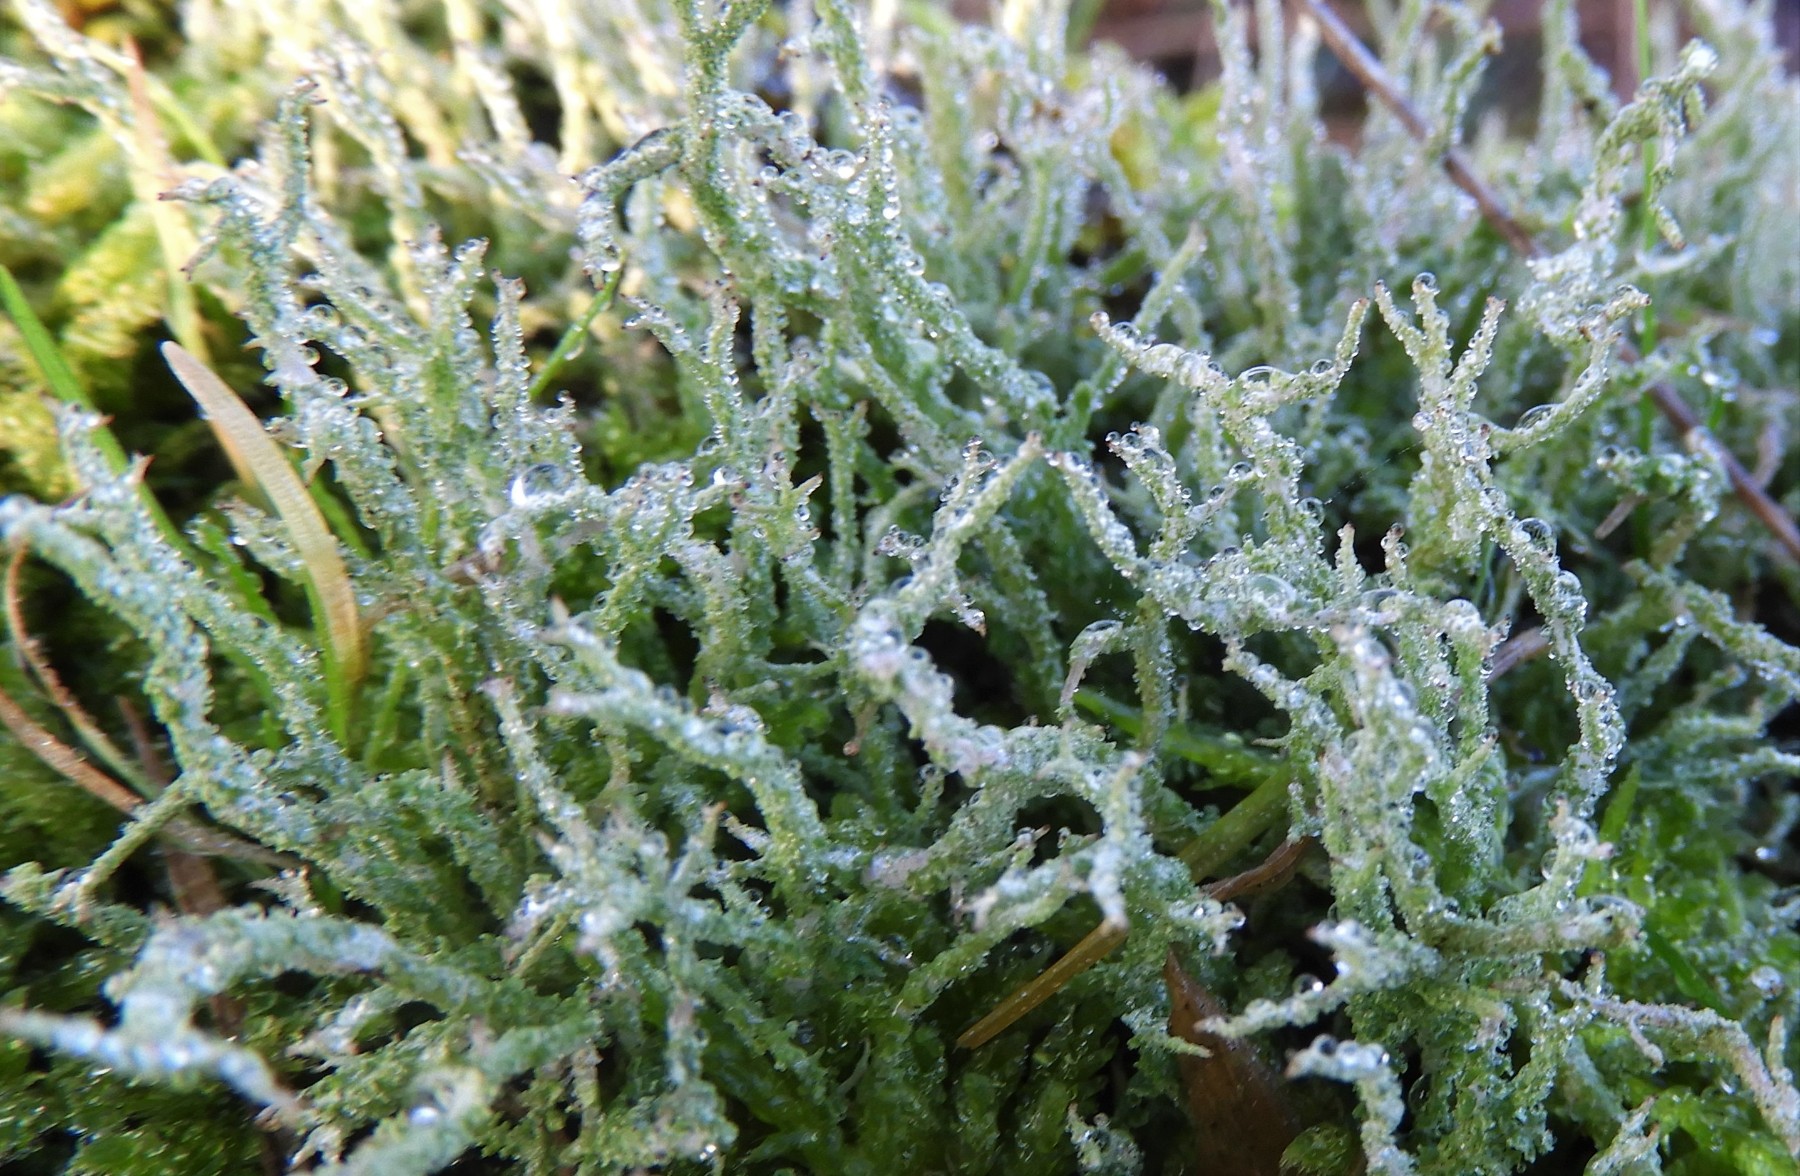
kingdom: Fungi
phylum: Ascomycota
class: Lecanoromycetes
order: Lecanorales
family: Cladoniaceae
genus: Cladonia
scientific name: Cladonia scabriuscula
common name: ru bægerlav
